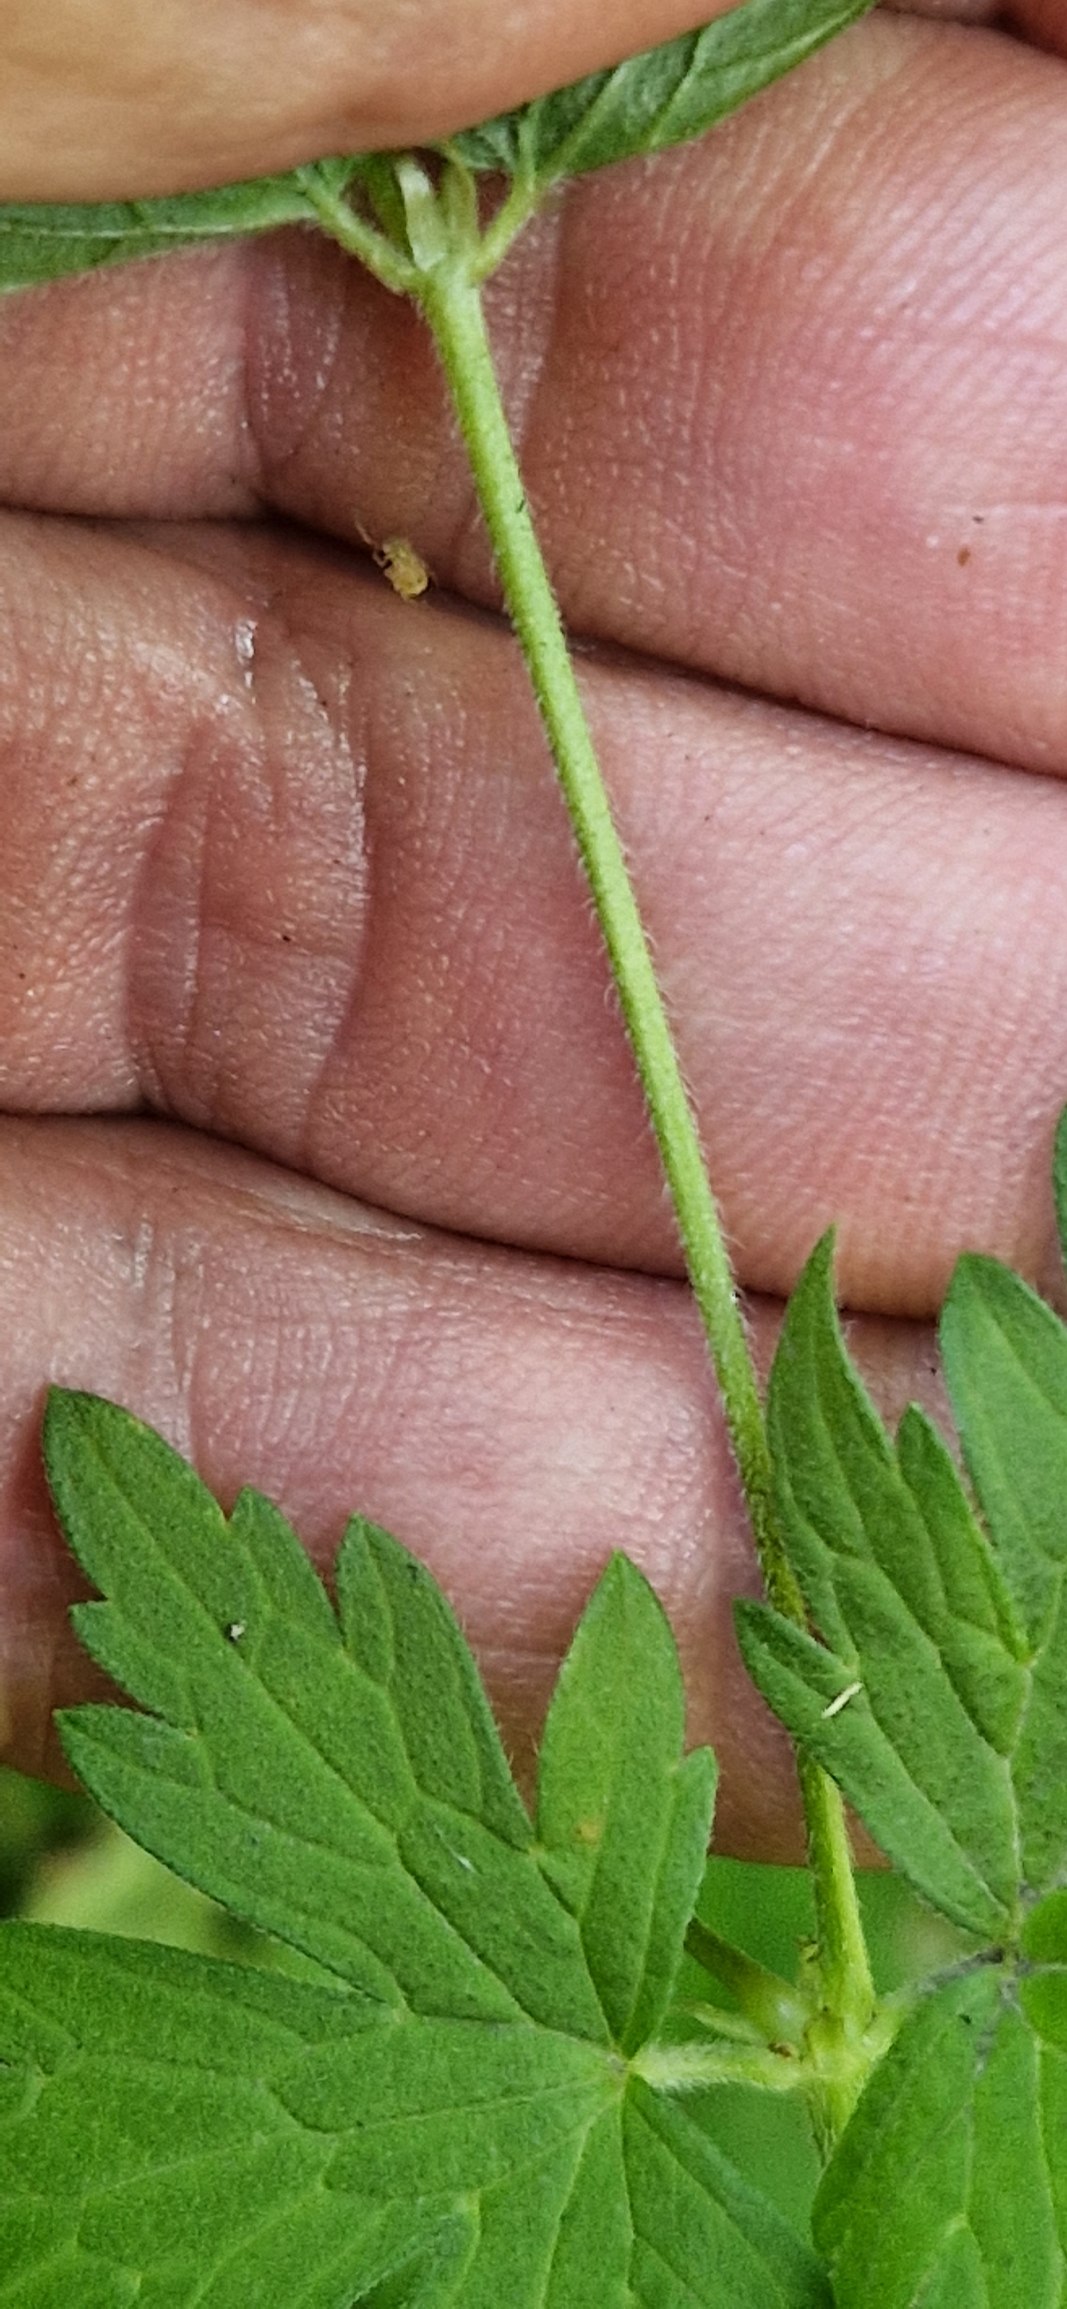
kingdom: Plantae
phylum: Tracheophyta
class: Magnoliopsida
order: Geraniales
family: Geraniaceae
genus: Geranium
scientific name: Geranium palustre
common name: Kær-storkenæb
